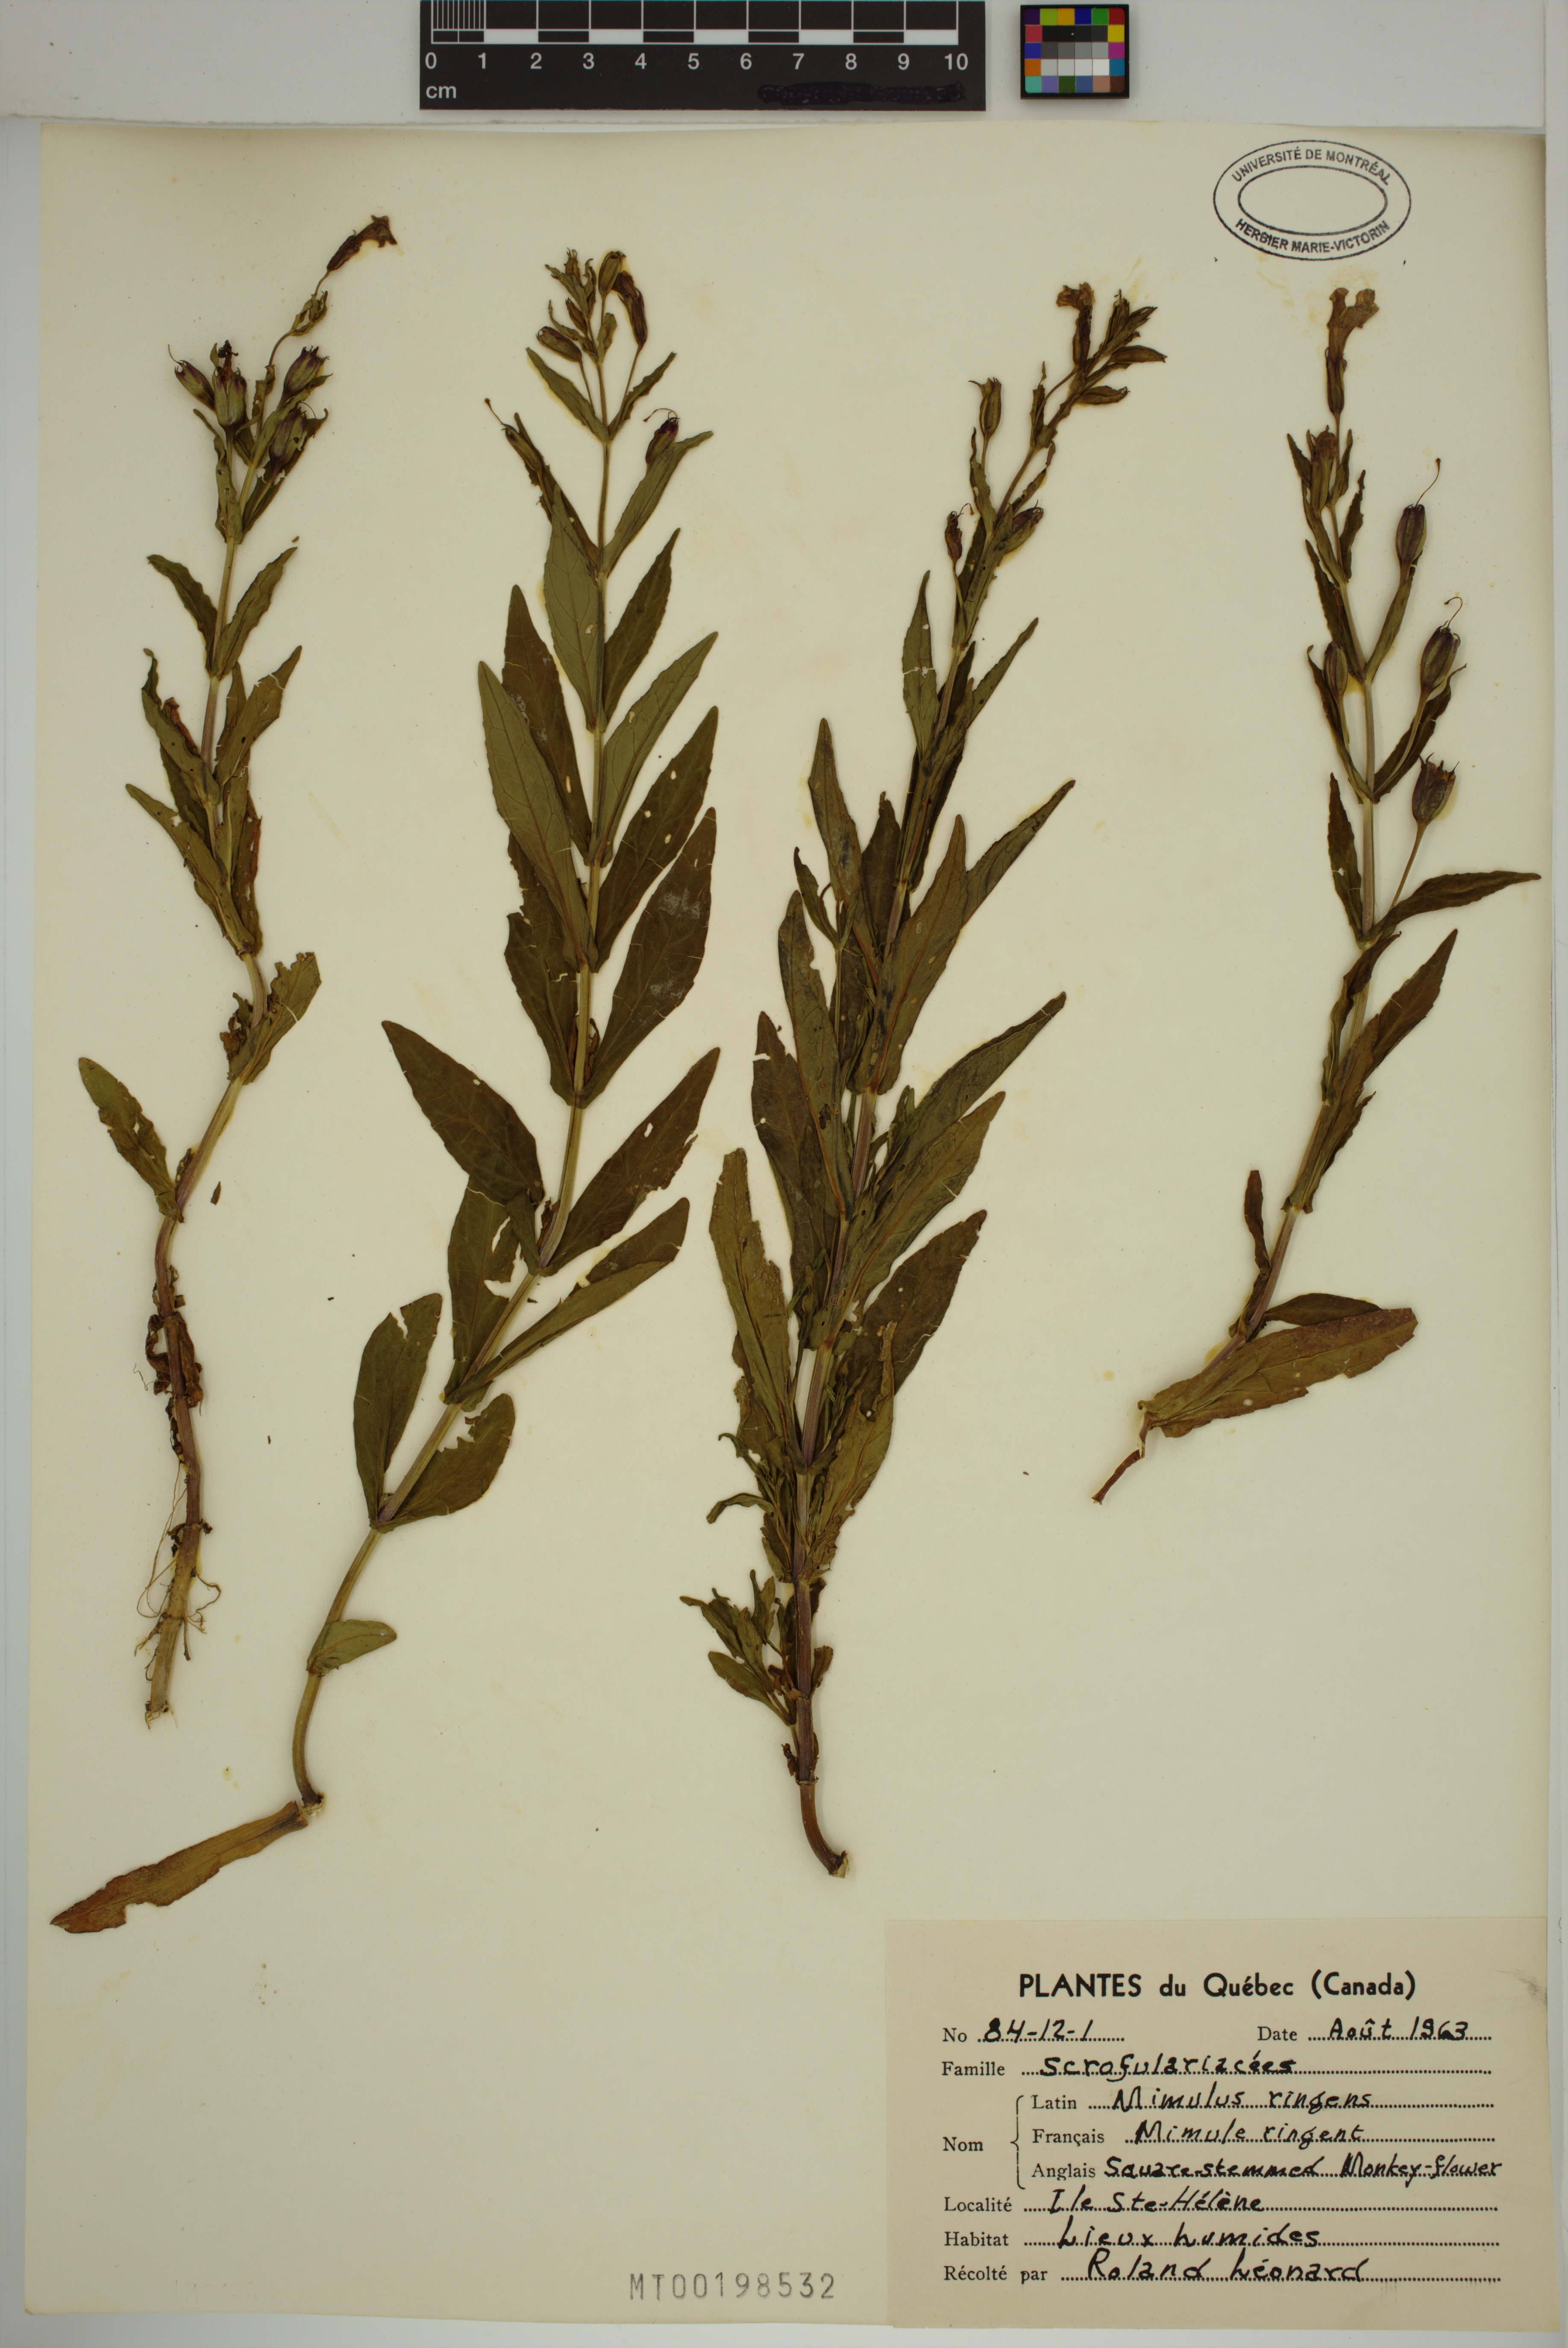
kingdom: Plantae
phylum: Tracheophyta
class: Magnoliopsida
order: Lamiales
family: Phrymaceae
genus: Mimulus
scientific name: Mimulus ringens
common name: Allegheny monkeyflower
